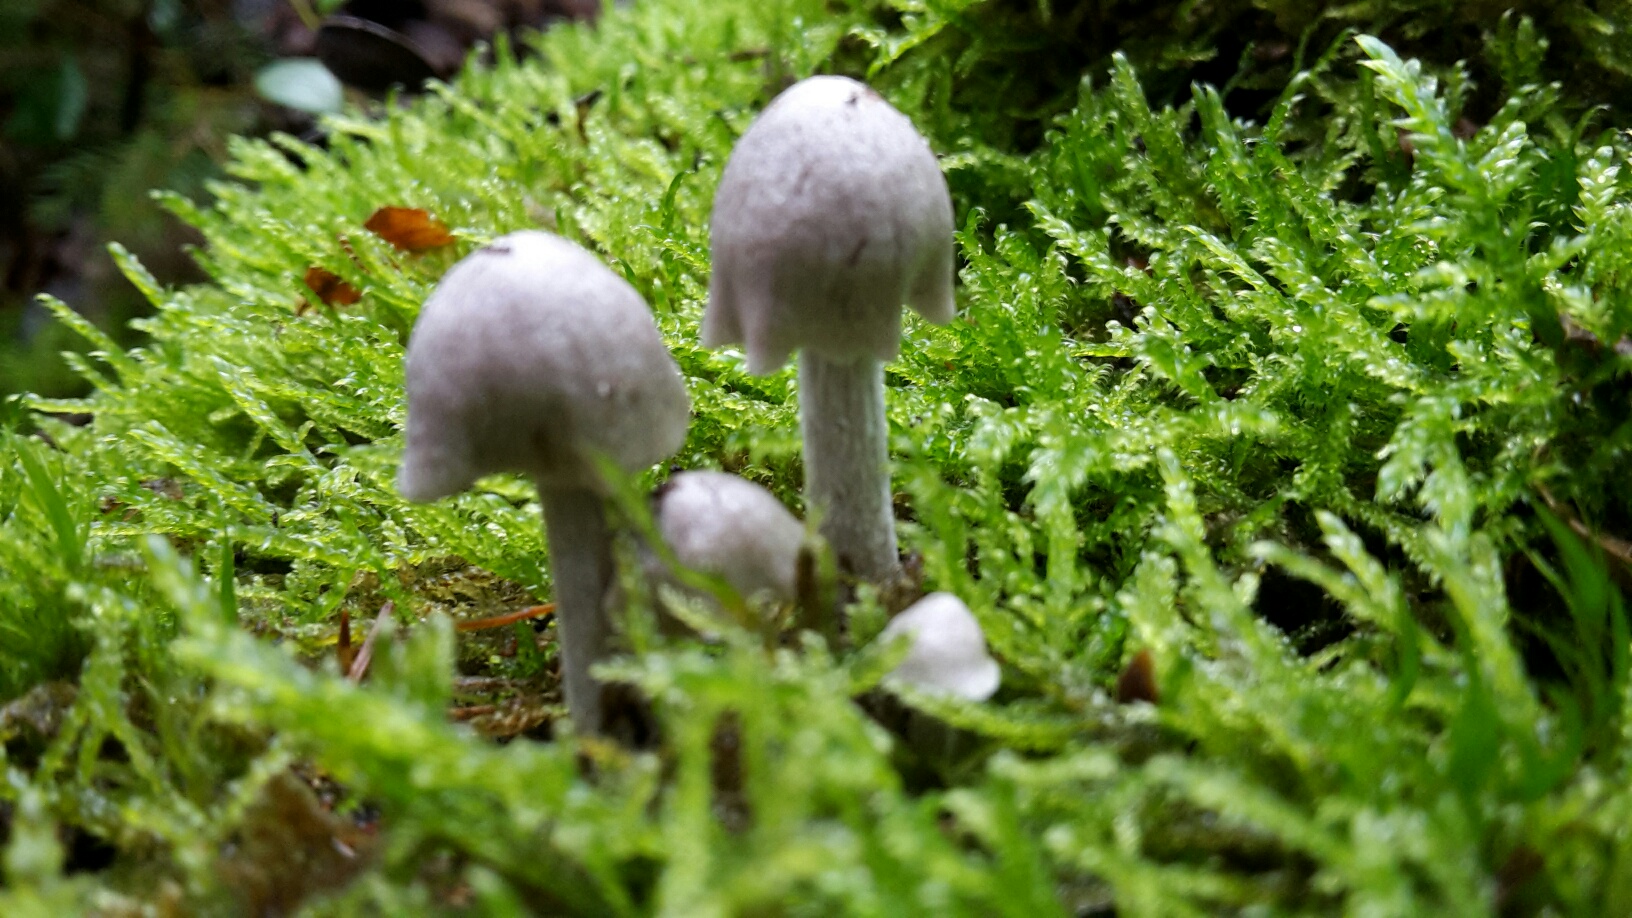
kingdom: Fungi
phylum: Basidiomycota
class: Agaricomycetes
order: Agaricales
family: Lyophyllaceae
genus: Asterophora
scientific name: Asterophora parasitica
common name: grå snyltehat
